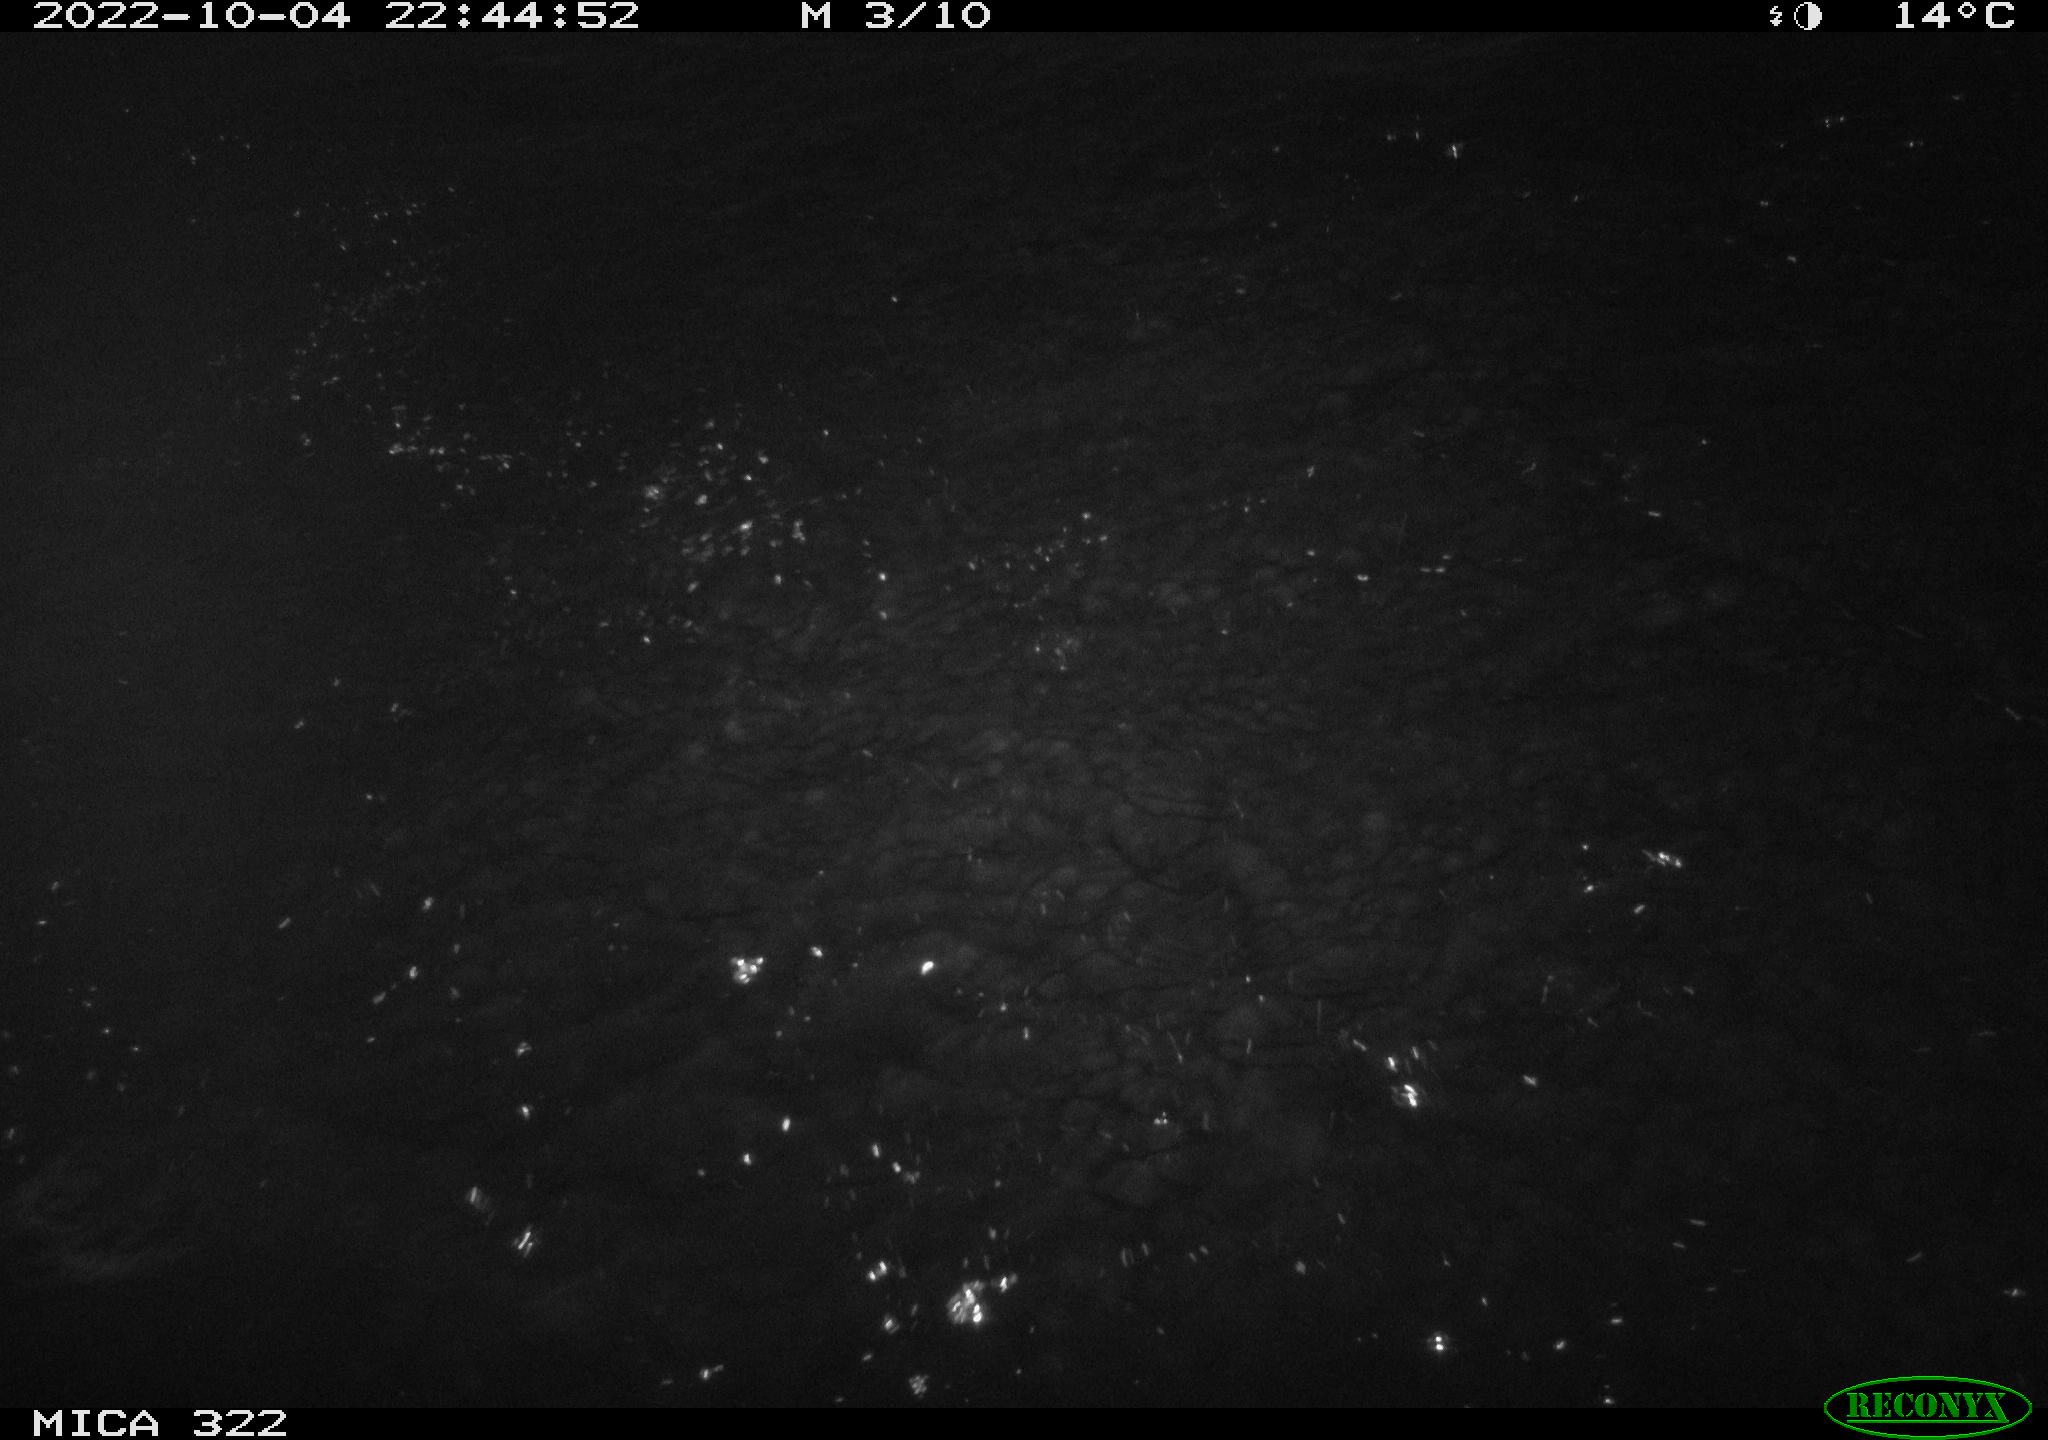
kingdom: Animalia
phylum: Chordata
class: Aves
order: Anseriformes
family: Anatidae
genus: Anas
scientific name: Anas
